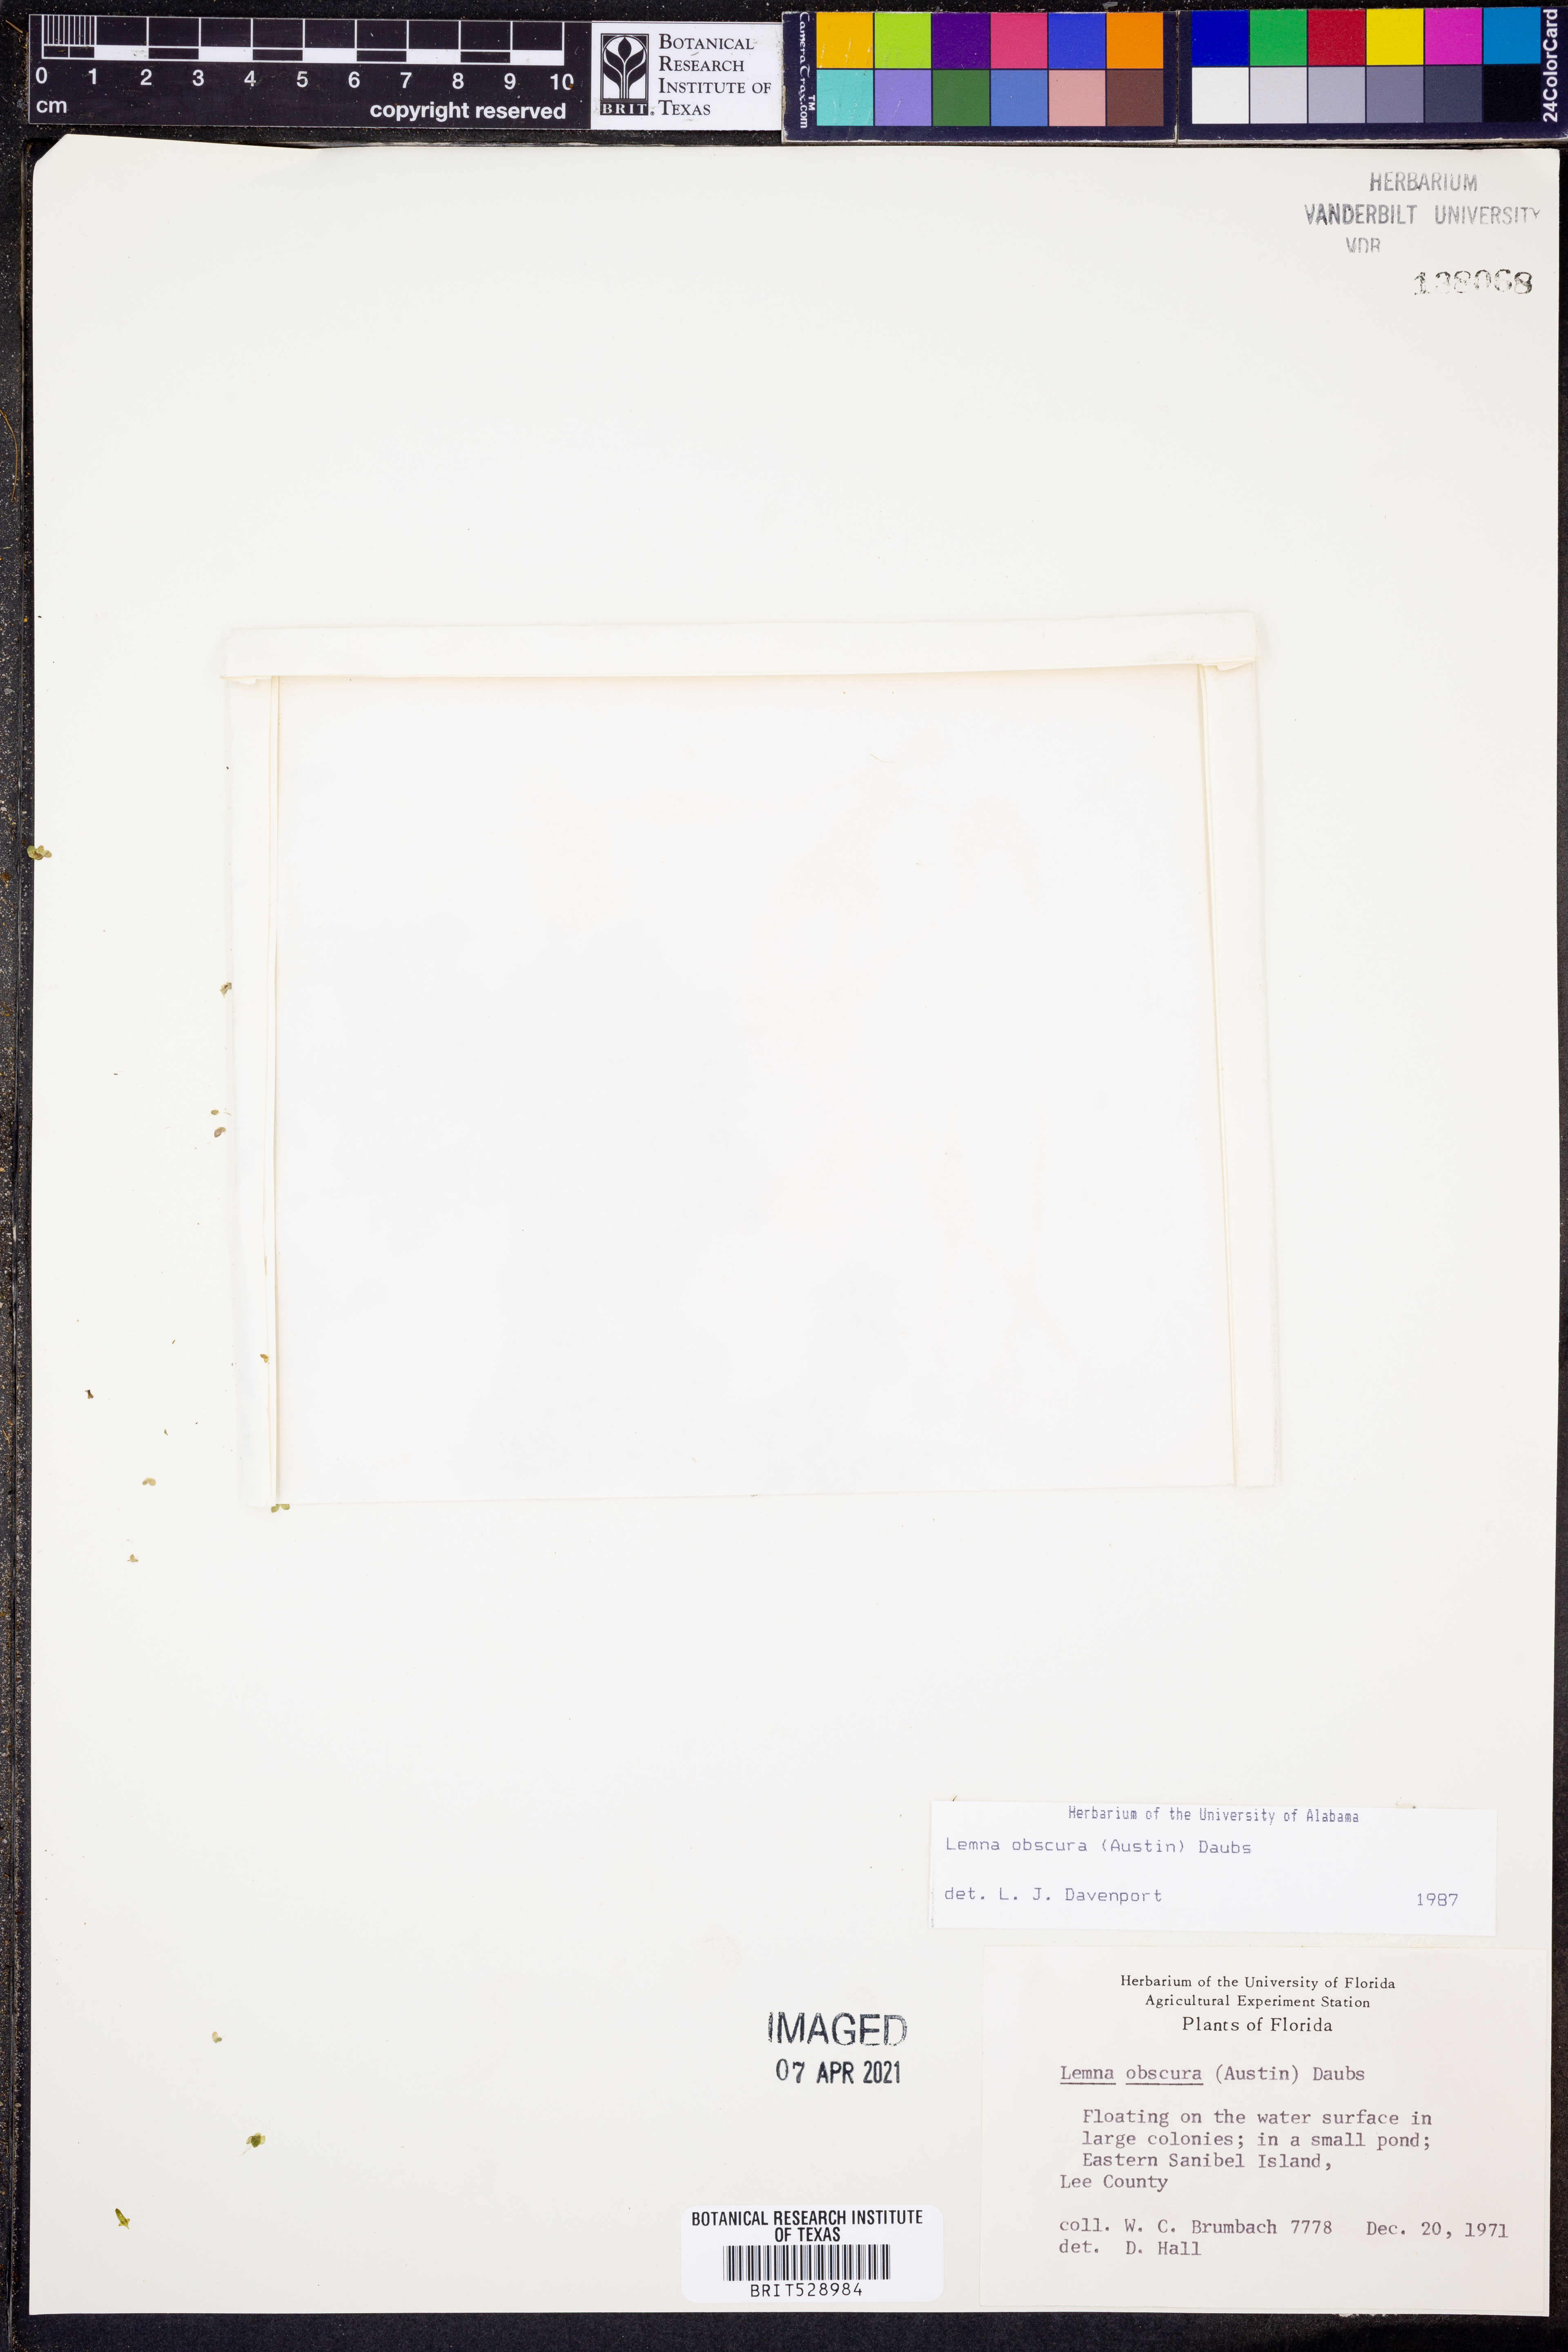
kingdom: Plantae
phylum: Tracheophyta
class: Liliopsida
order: Alismatales
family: Araceae
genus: Lemna
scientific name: Lemna obscura
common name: Little duckweed
